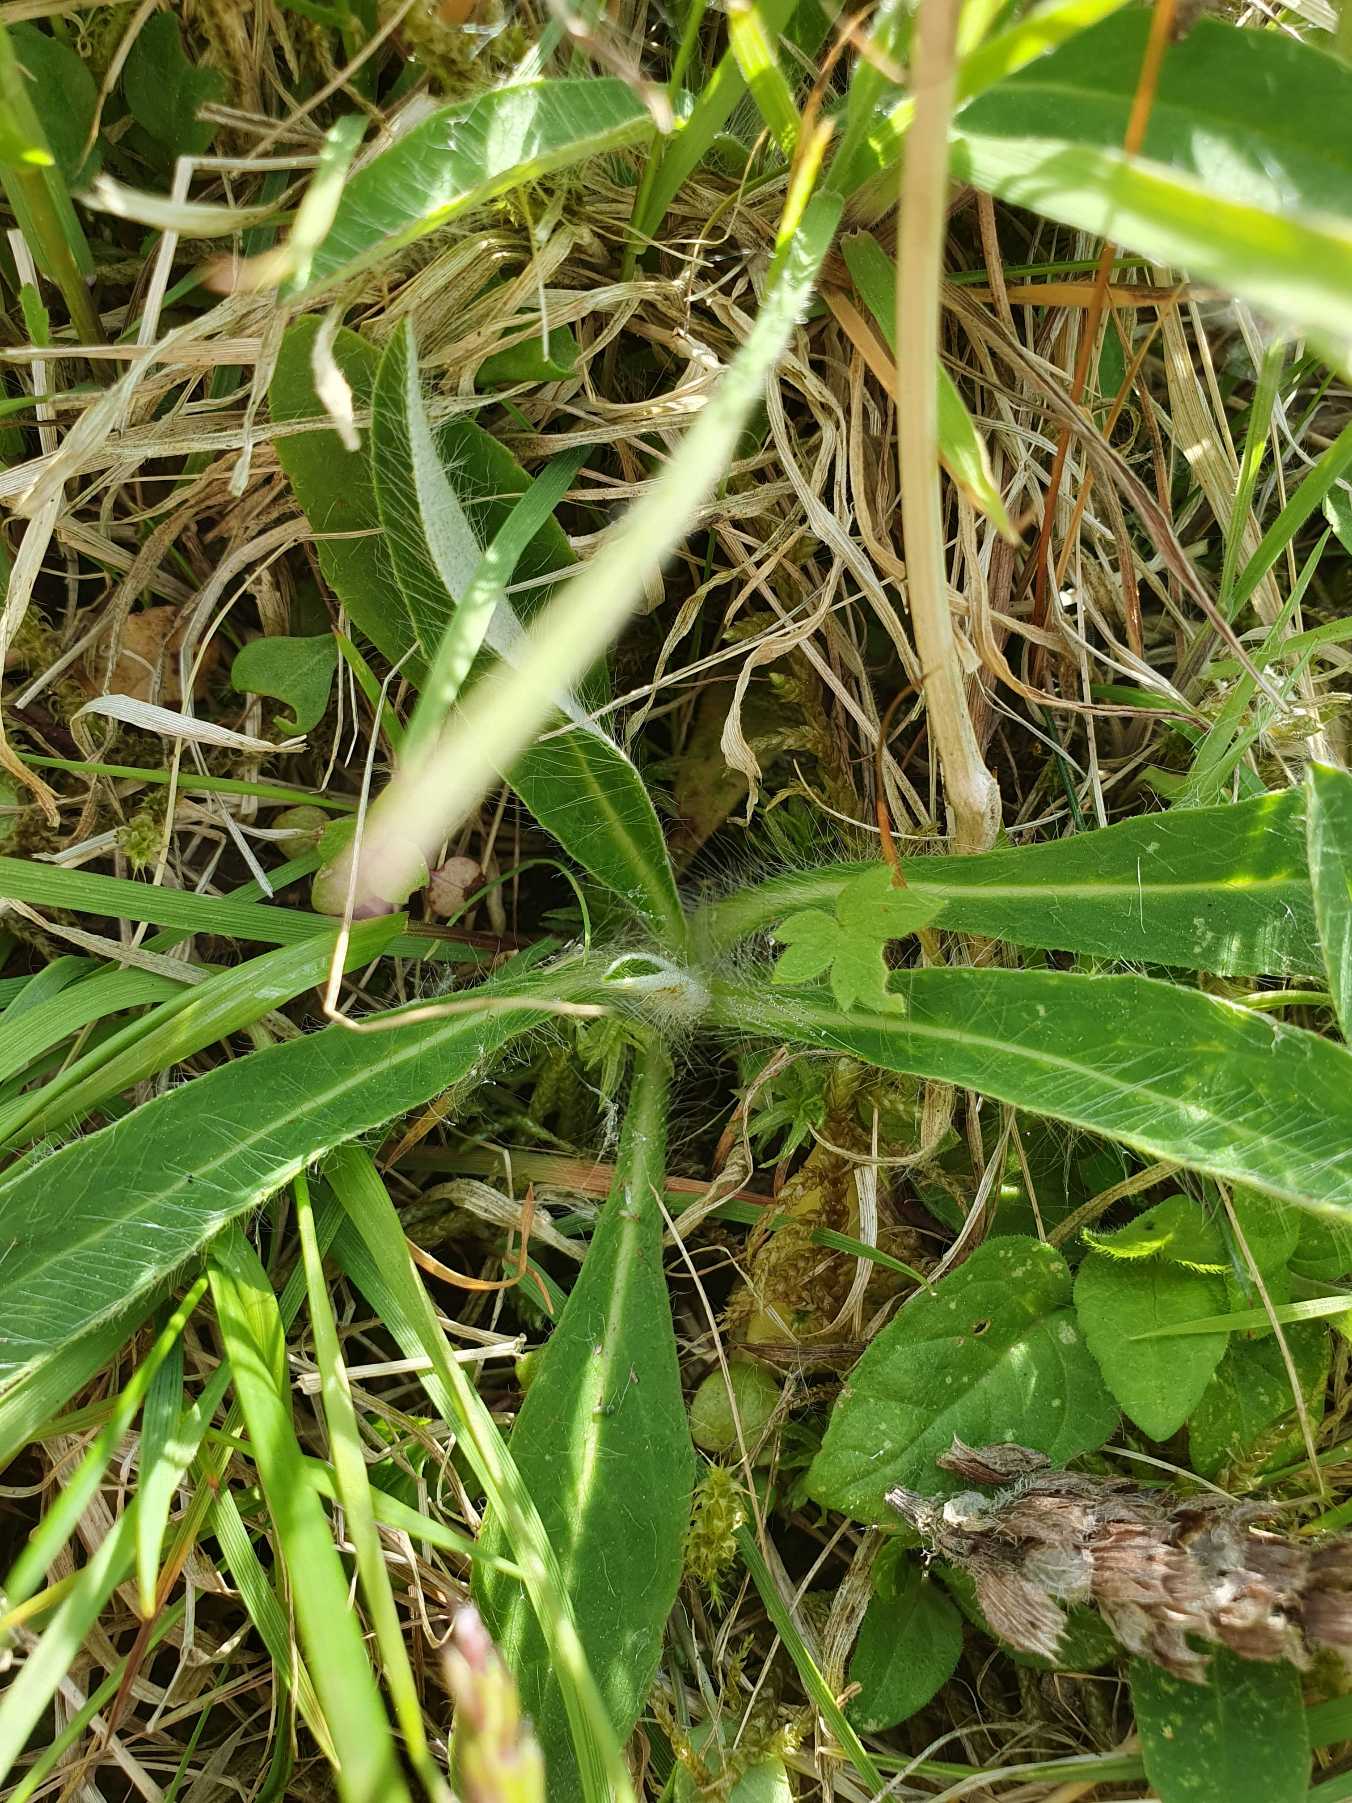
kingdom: Plantae
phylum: Tracheophyta
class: Magnoliopsida
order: Asterales
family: Asteraceae
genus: Pilosella
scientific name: Pilosella officinarum
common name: Håret høgeurt
